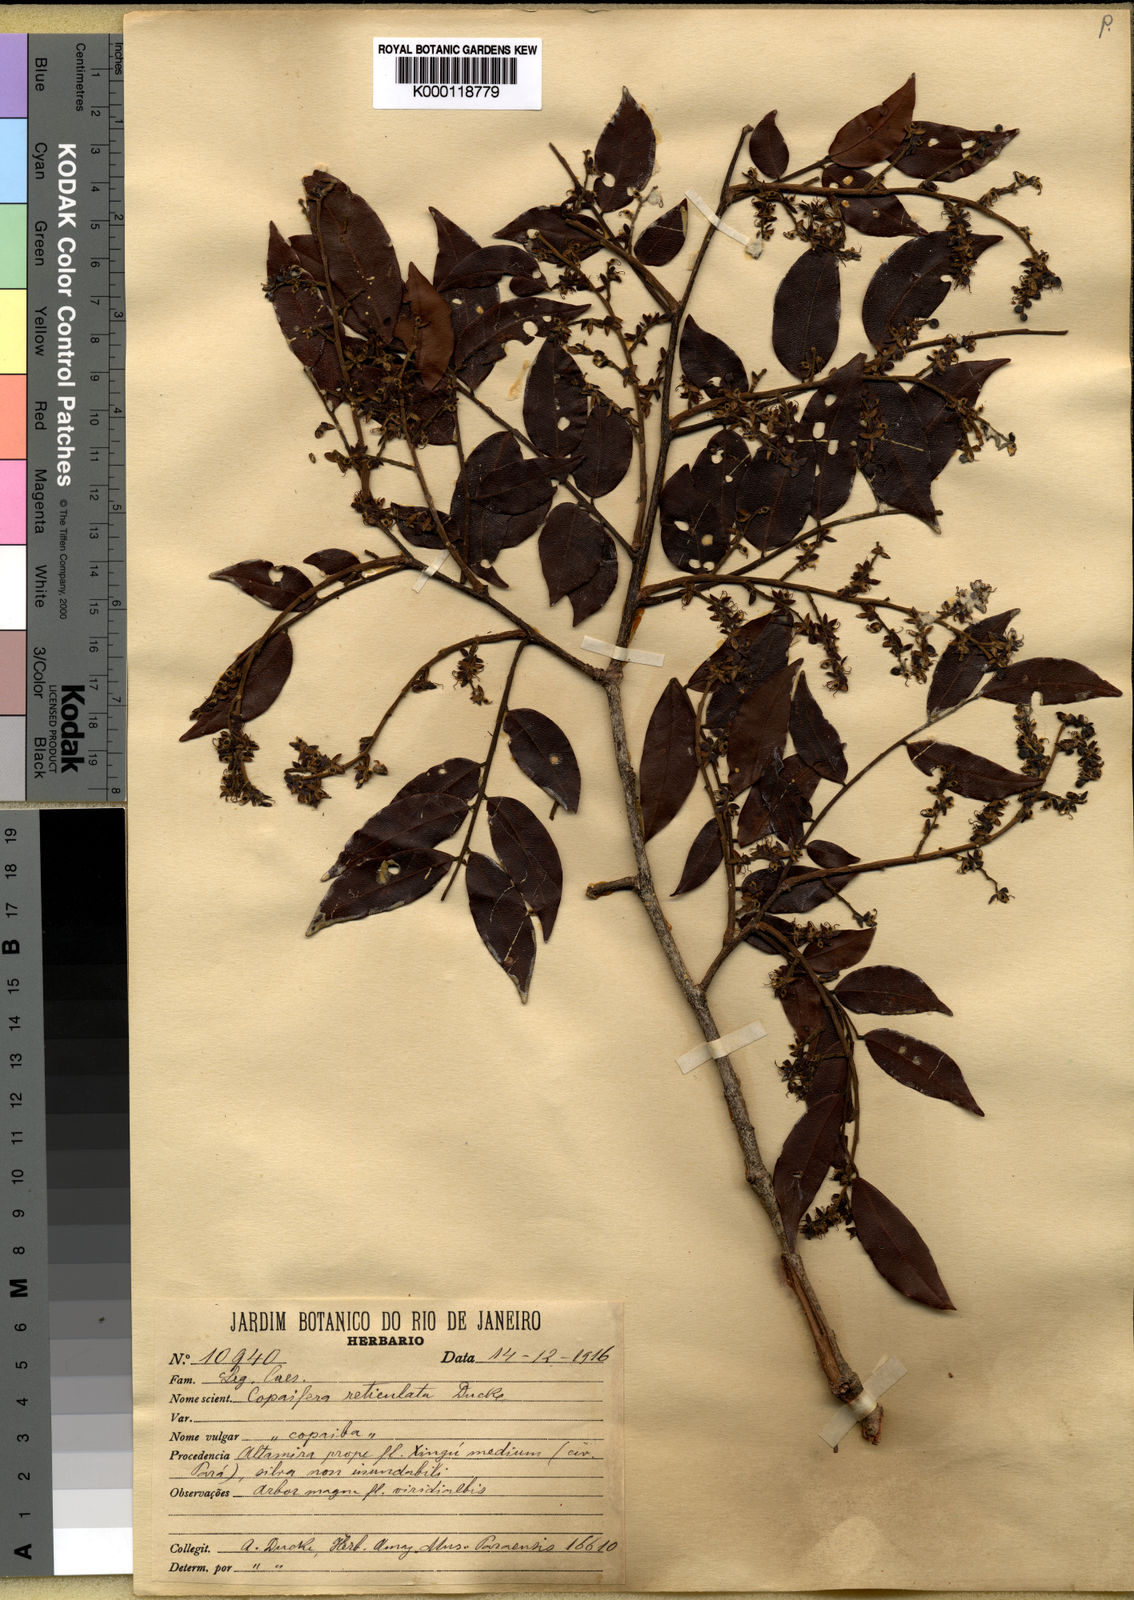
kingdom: Plantae
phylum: Tracheophyta
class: Magnoliopsida
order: Fabales
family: Fabaceae
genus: Copaifera
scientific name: Copaifera copaibo
